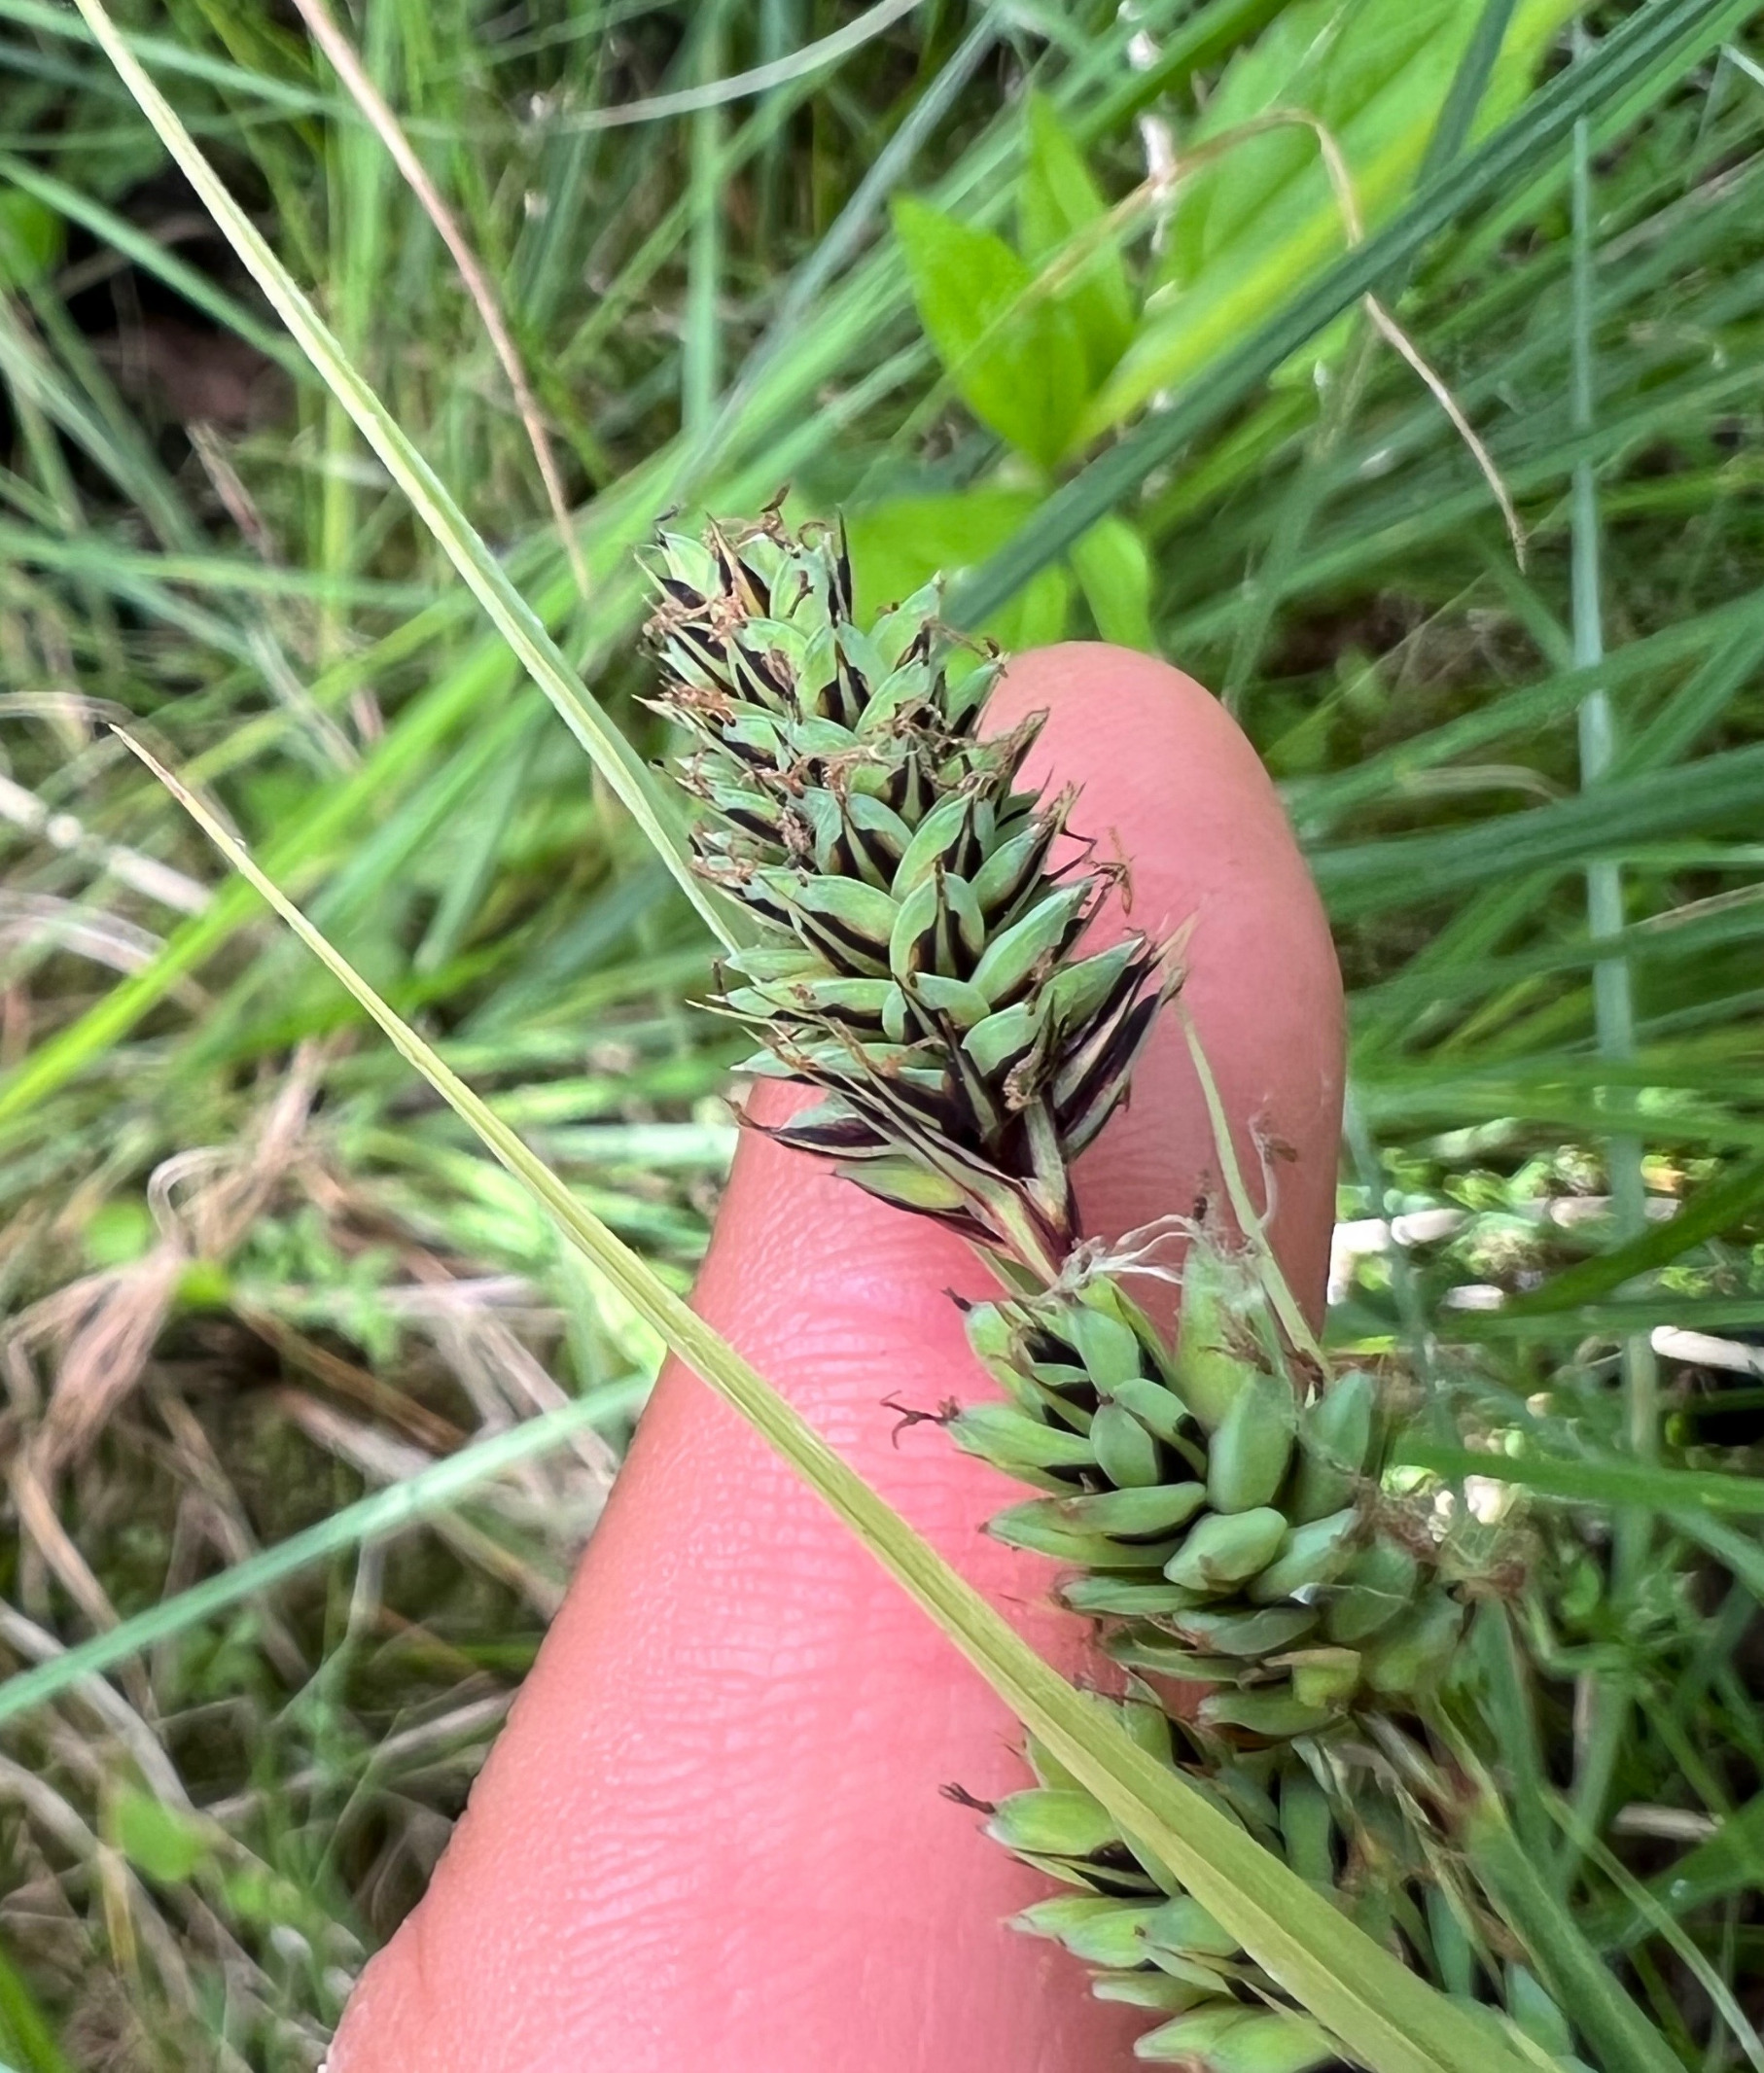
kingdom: Plantae
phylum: Tracheophyta
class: Liliopsida
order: Poales
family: Cyperaceae
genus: Carex
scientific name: Carex buxbaumii
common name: Kølle-star
